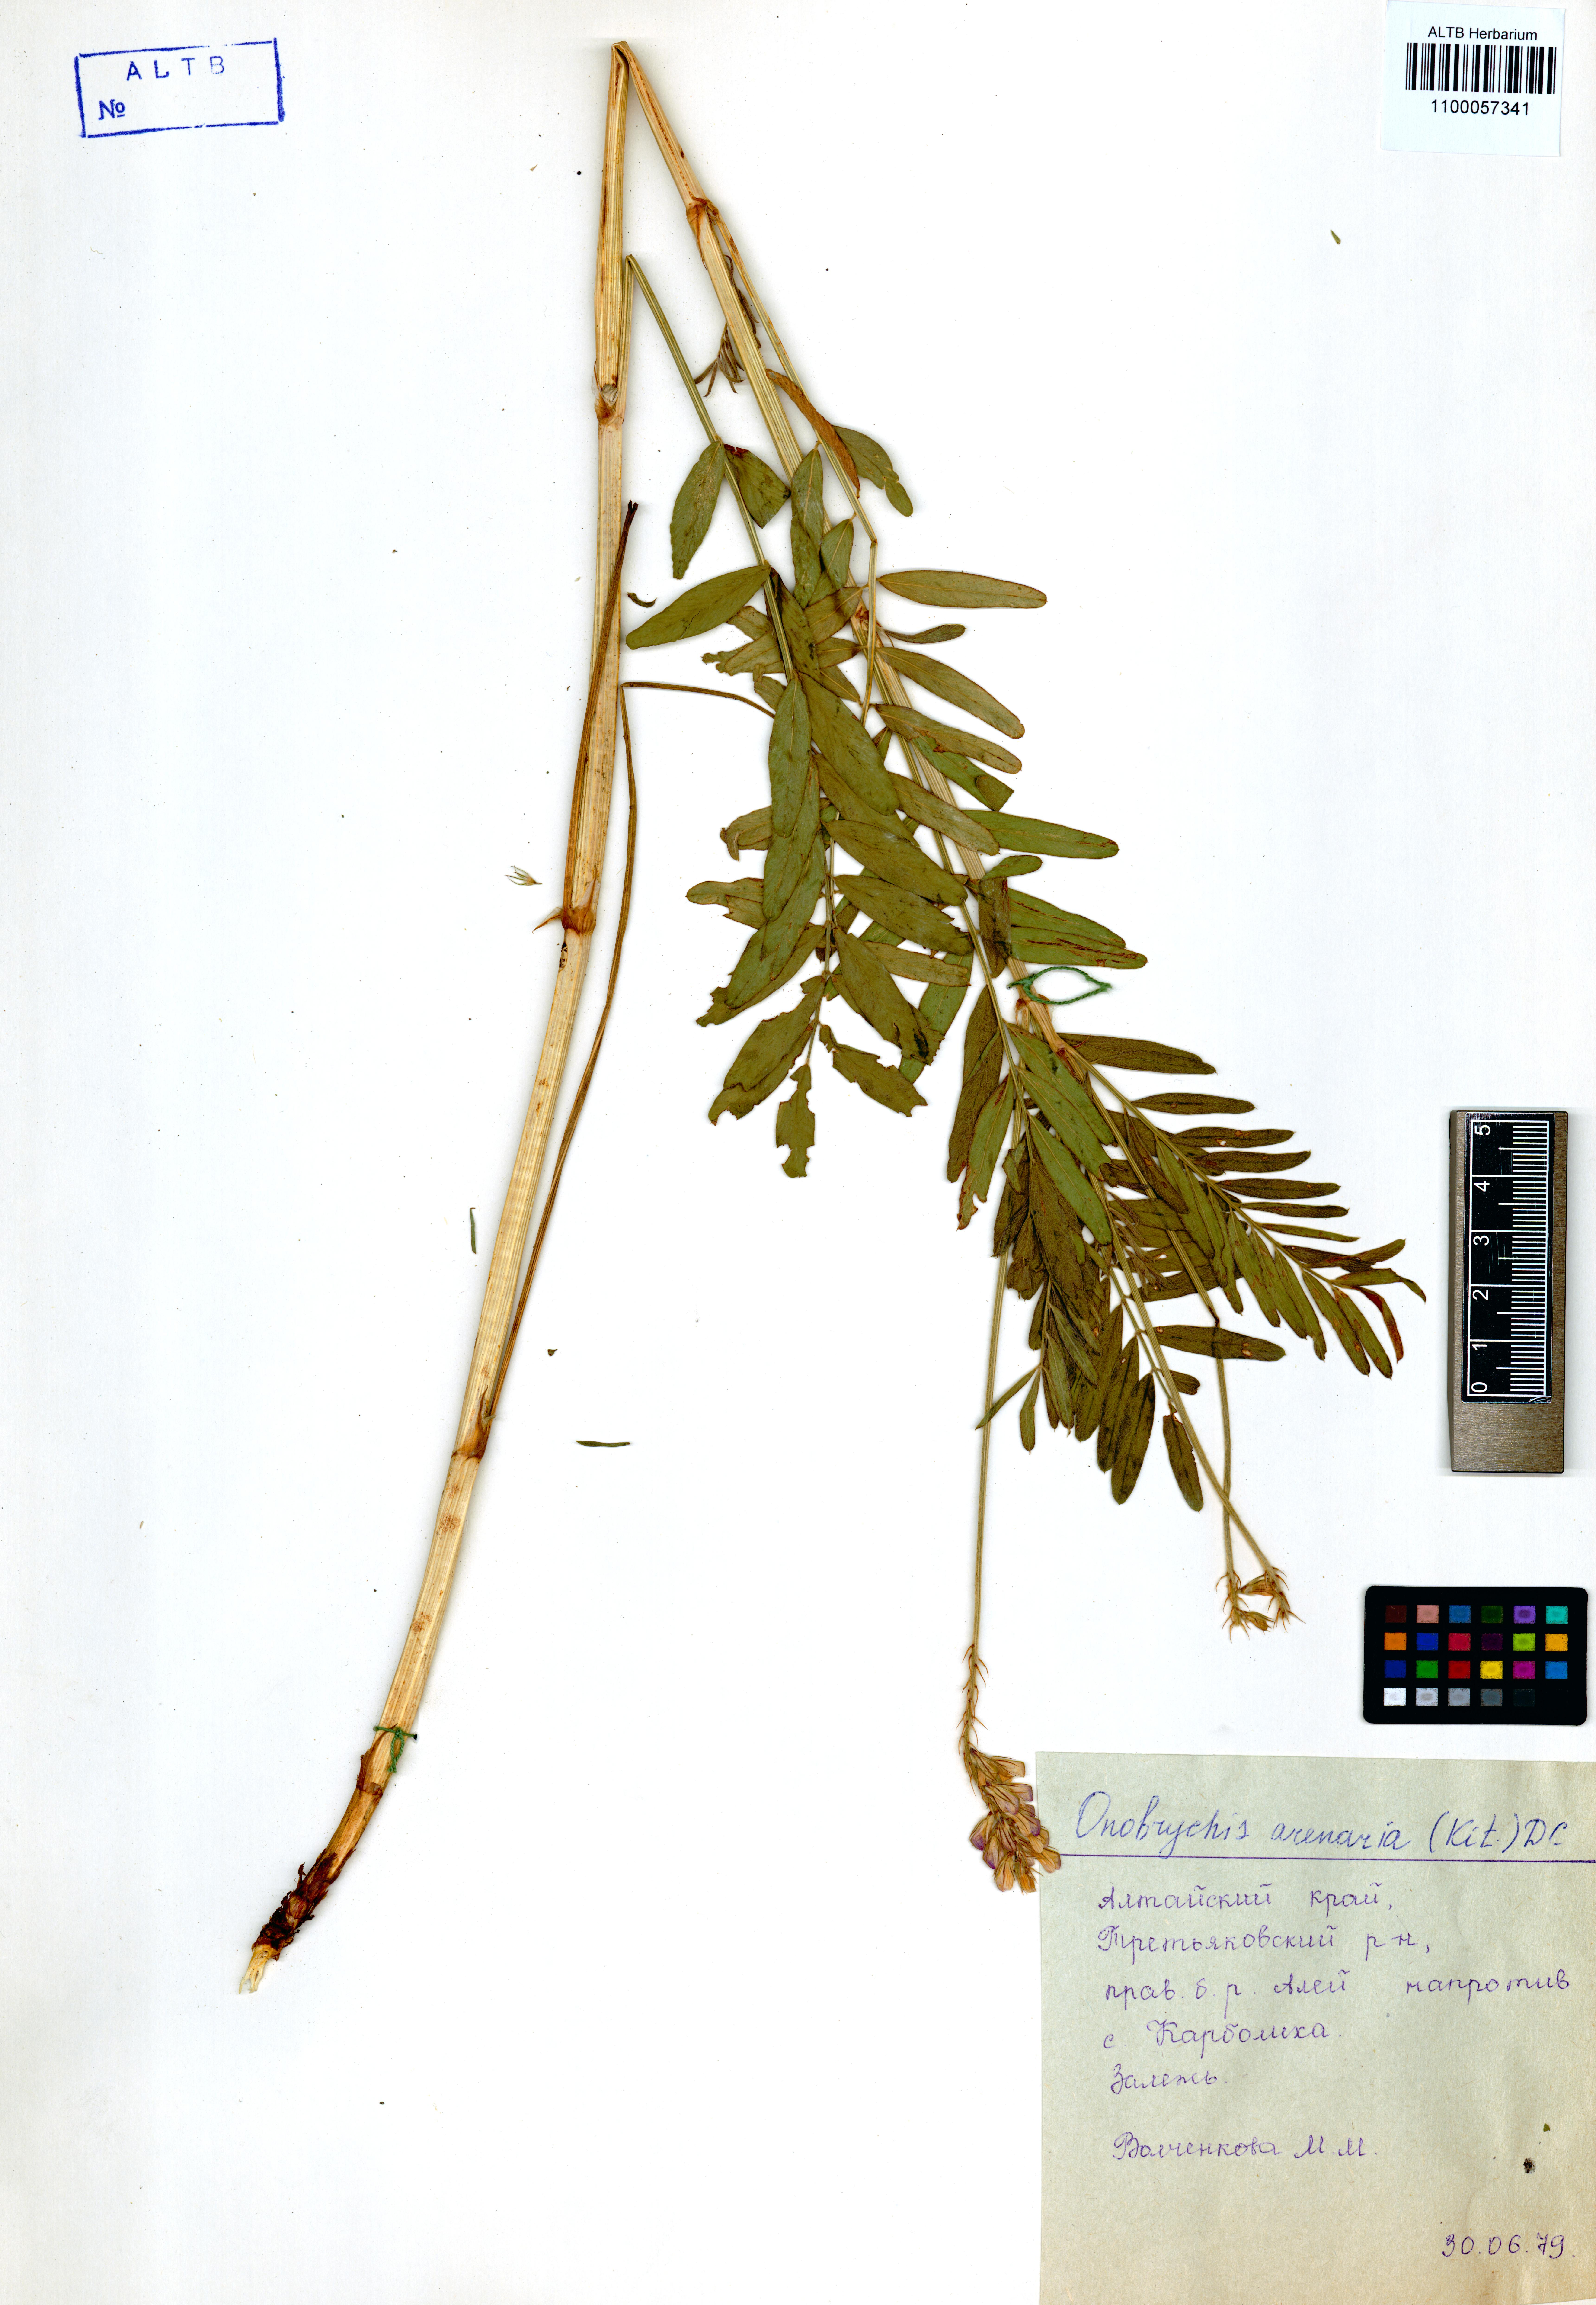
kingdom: Plantae
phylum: Tracheophyta
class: Magnoliopsida
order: Fabales
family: Fabaceae
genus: Onobrychis
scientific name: Onobrychis arenaria
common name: Sand esparcet
